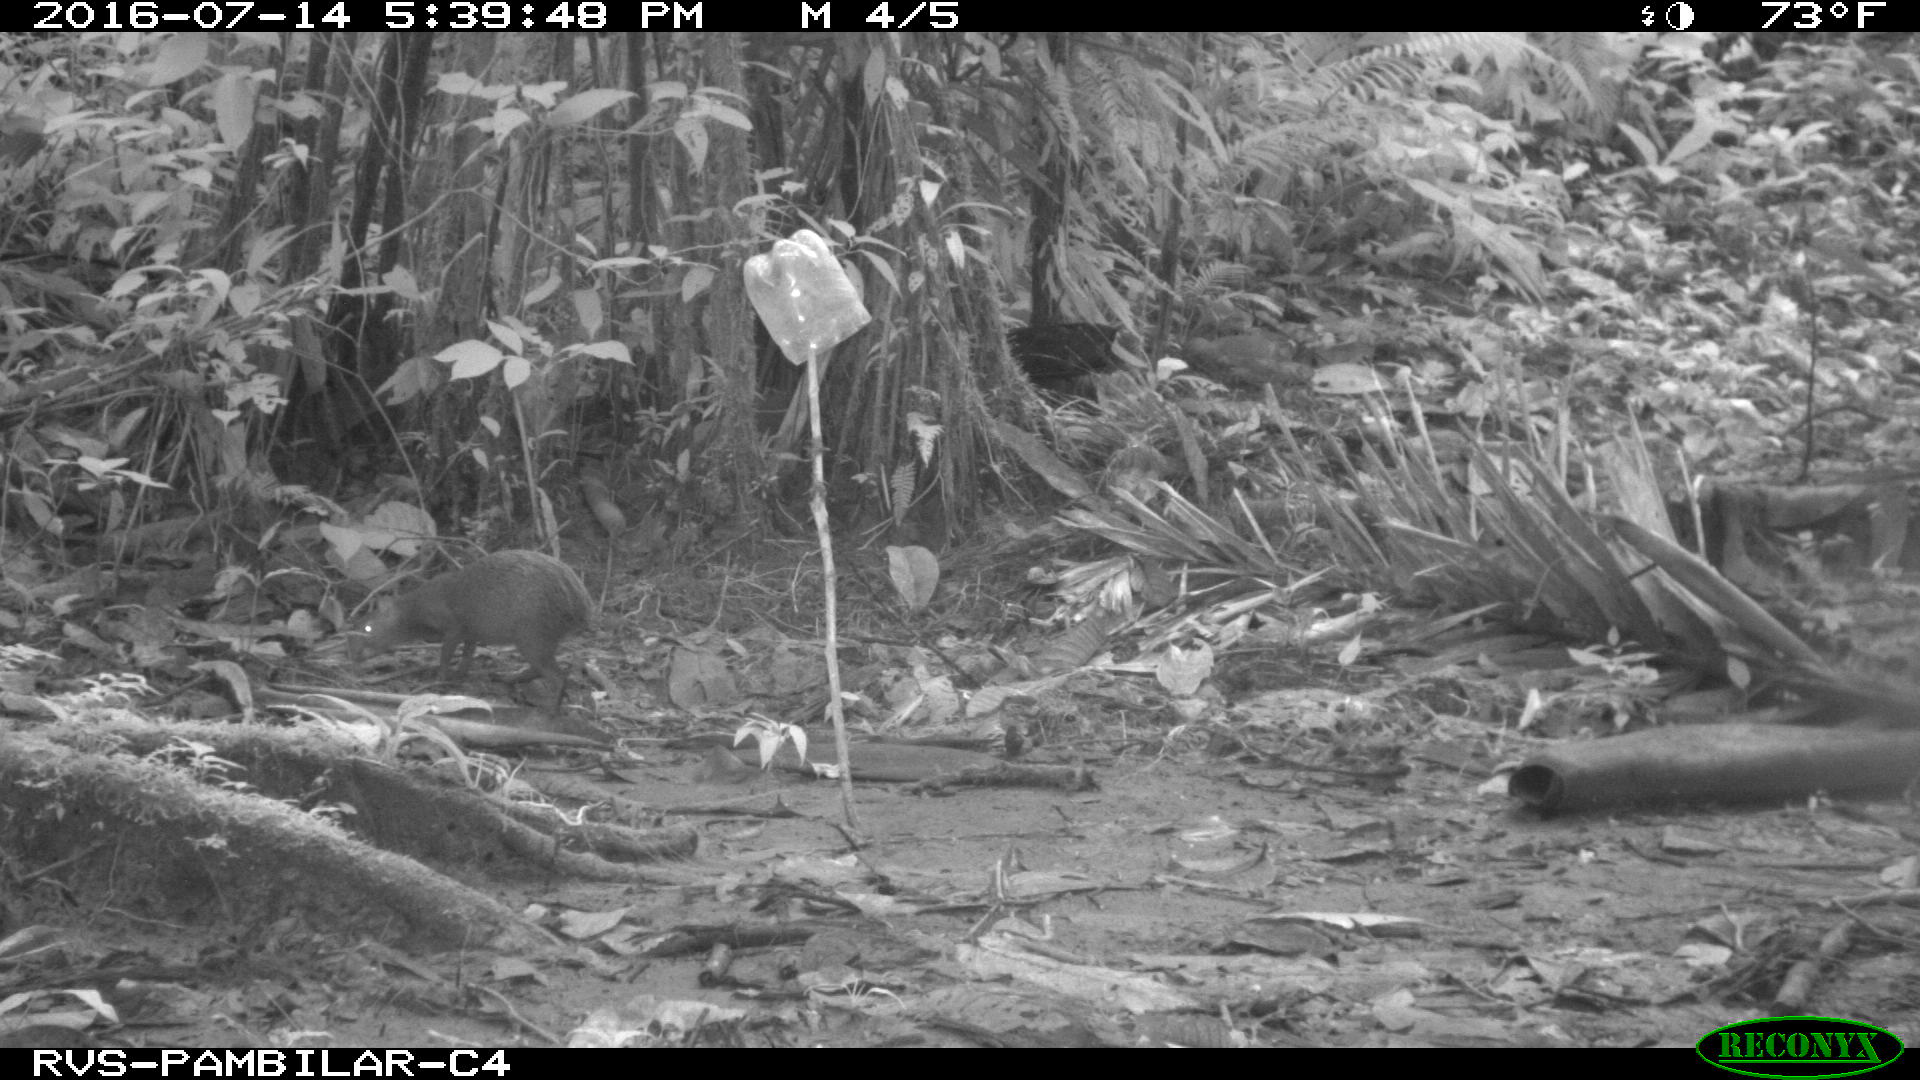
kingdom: Animalia
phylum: Chordata
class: Mammalia
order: Rodentia
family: Dasyproctidae
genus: Dasyprocta
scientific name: Dasyprocta punctata
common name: Central american agouti
